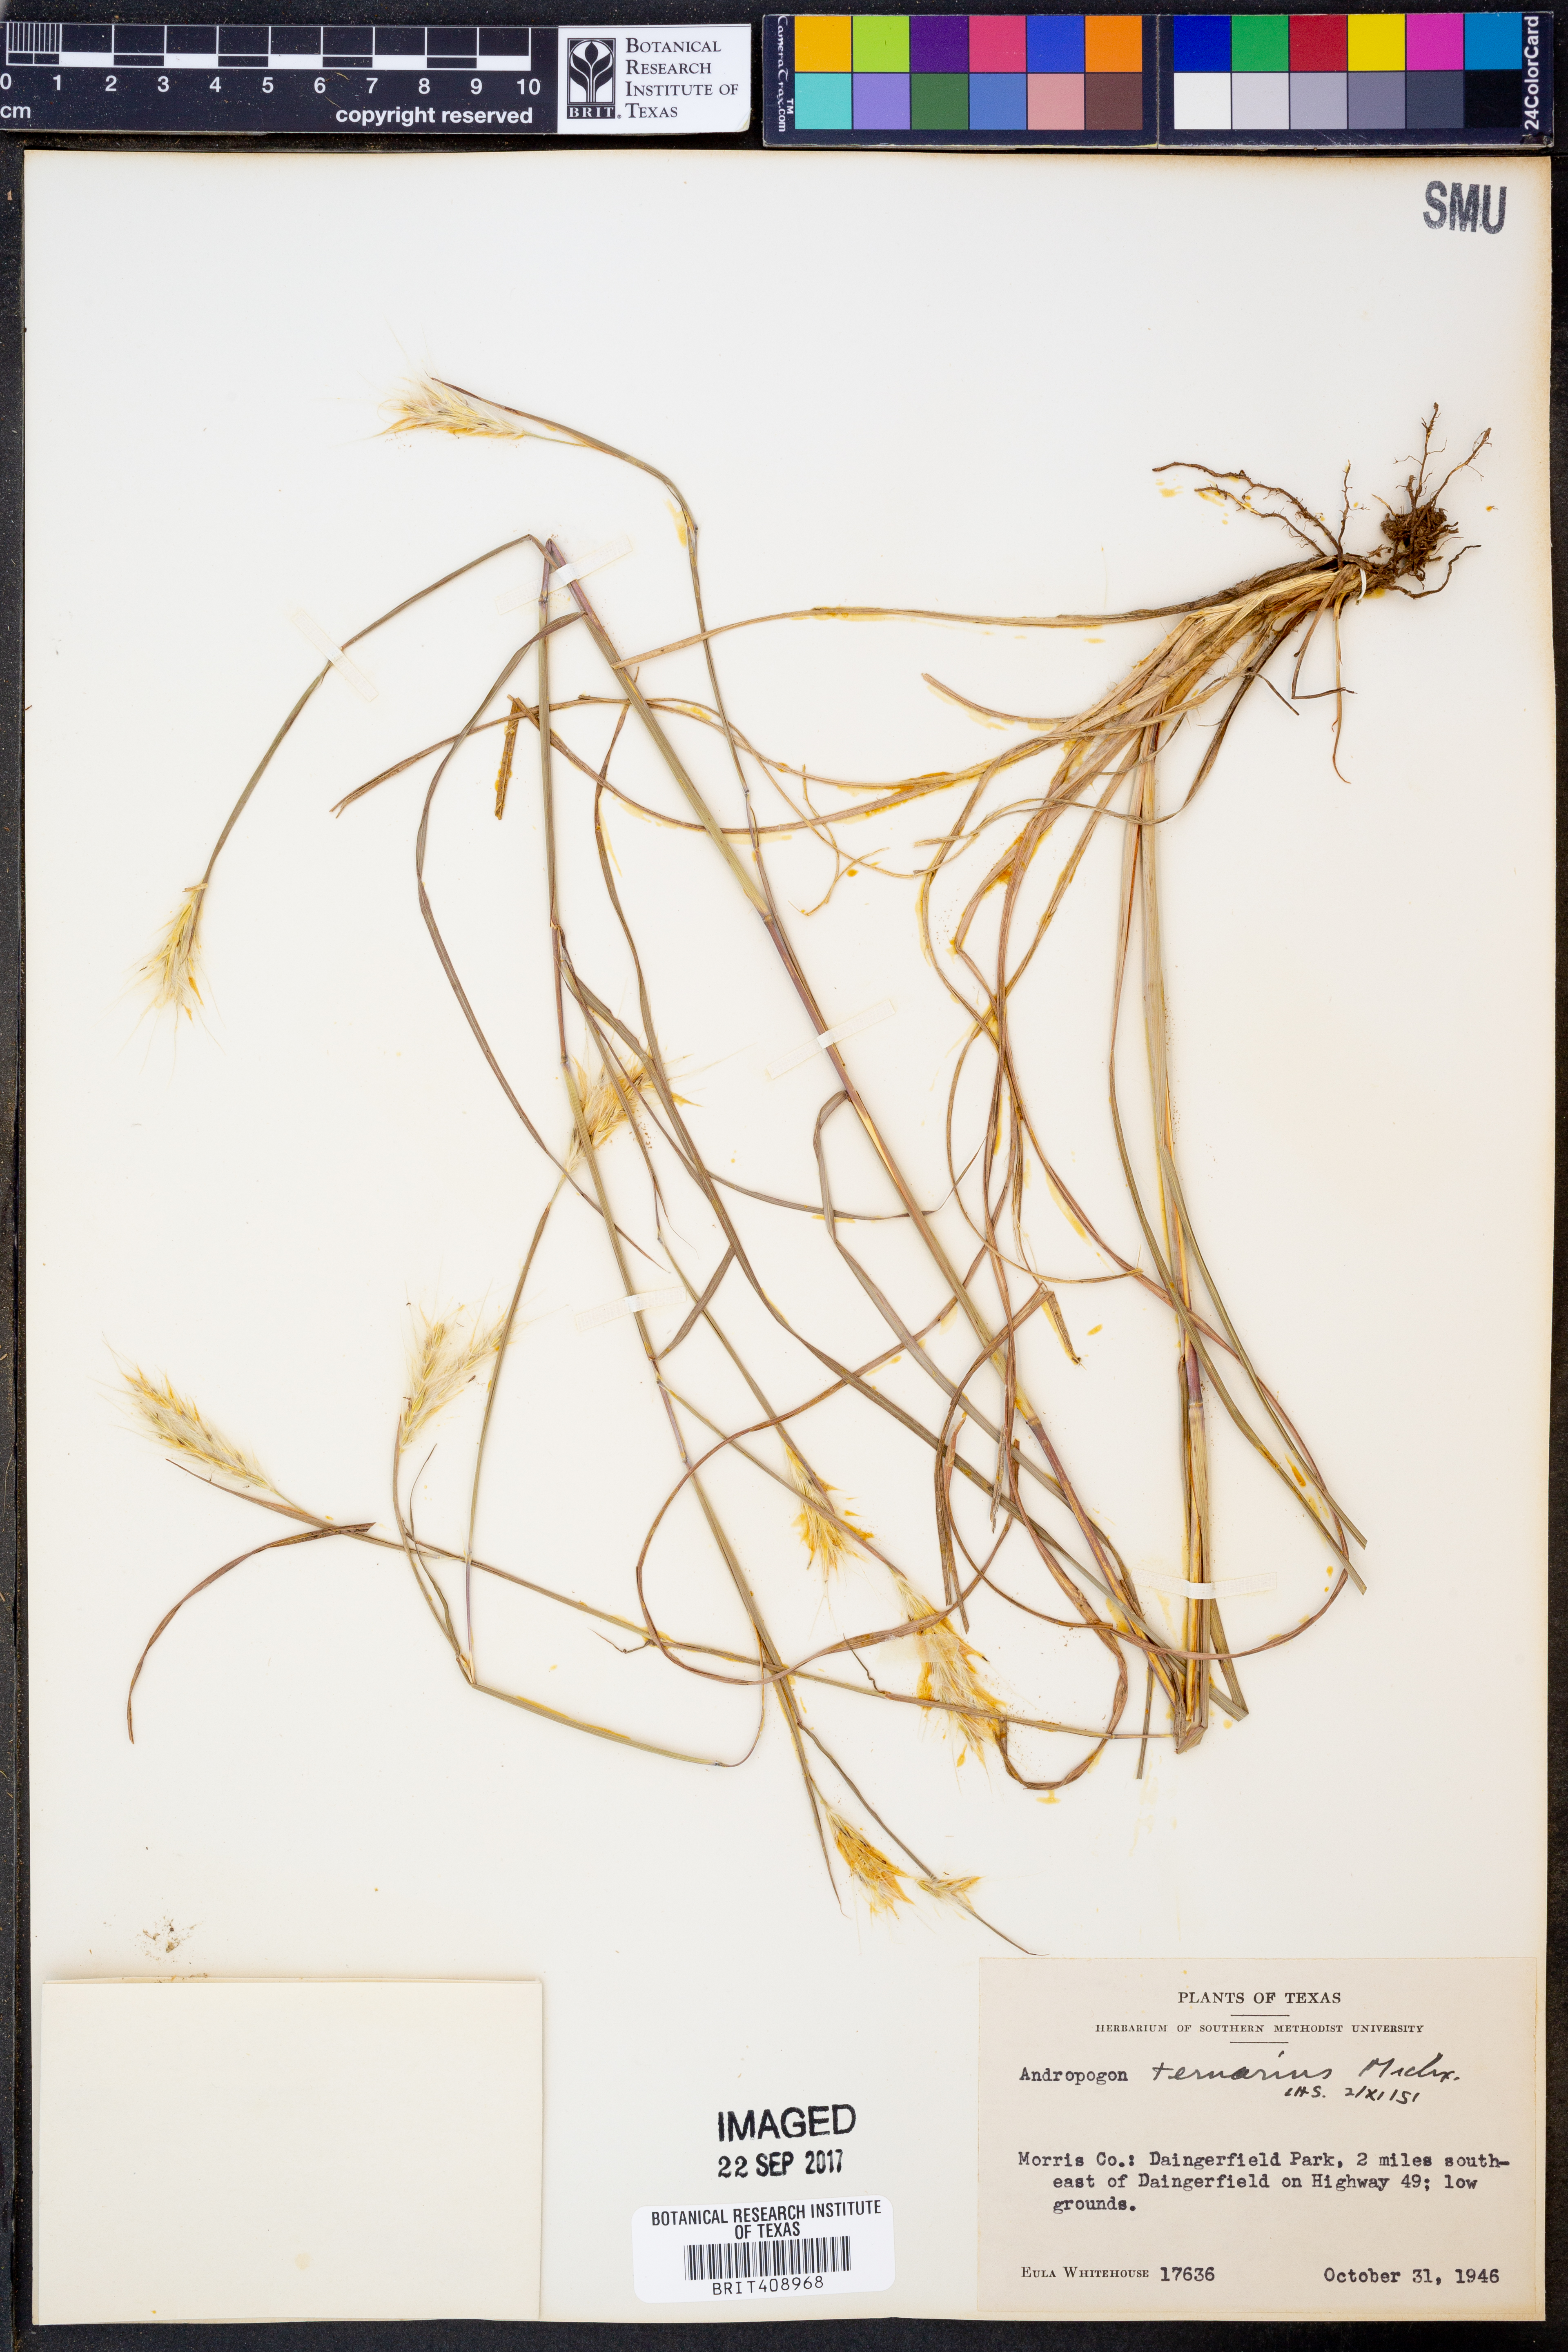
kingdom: Plantae
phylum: Tracheophyta
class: Liliopsida
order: Poales
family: Poaceae
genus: Andropogon
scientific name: Andropogon ternarius
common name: Split bluestem
